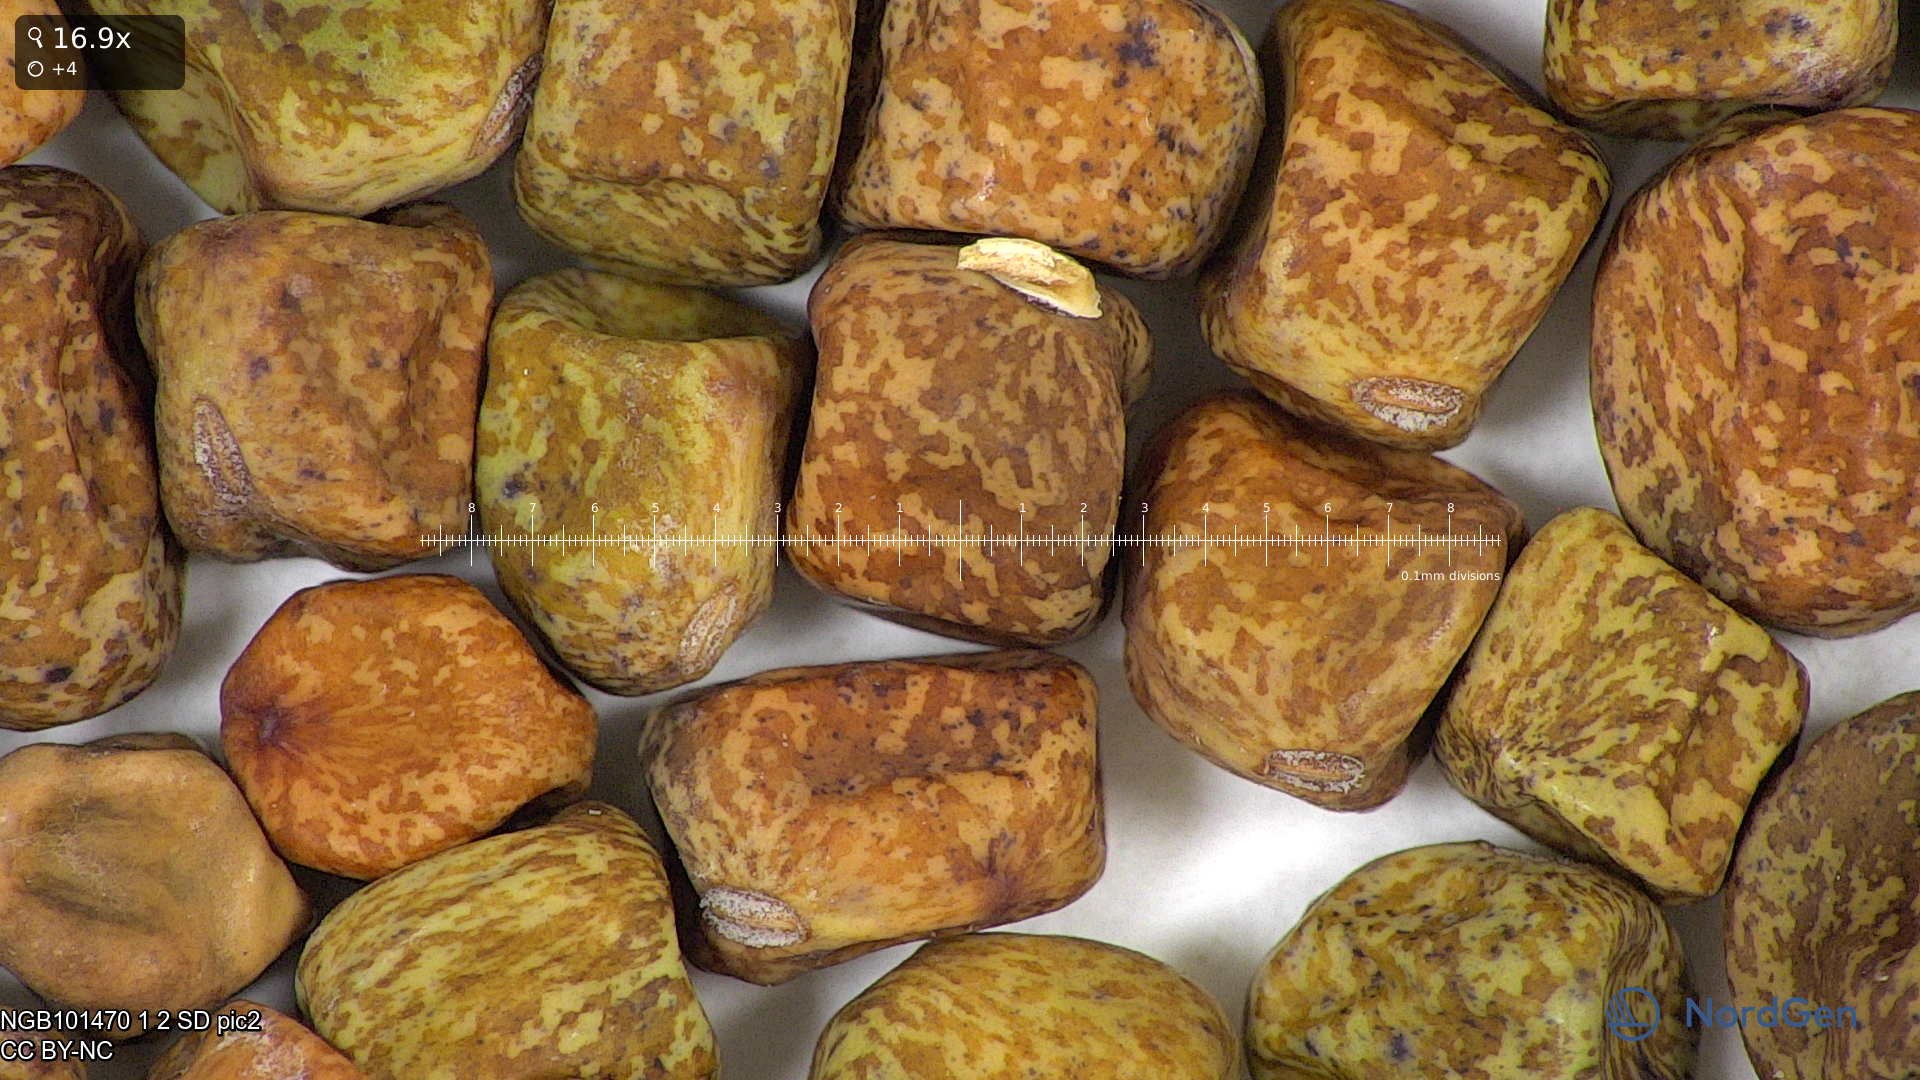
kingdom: Plantae
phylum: Tracheophyta
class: Magnoliopsida
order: Fabales
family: Fabaceae
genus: Lathyrus
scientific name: Lathyrus oleraceus
